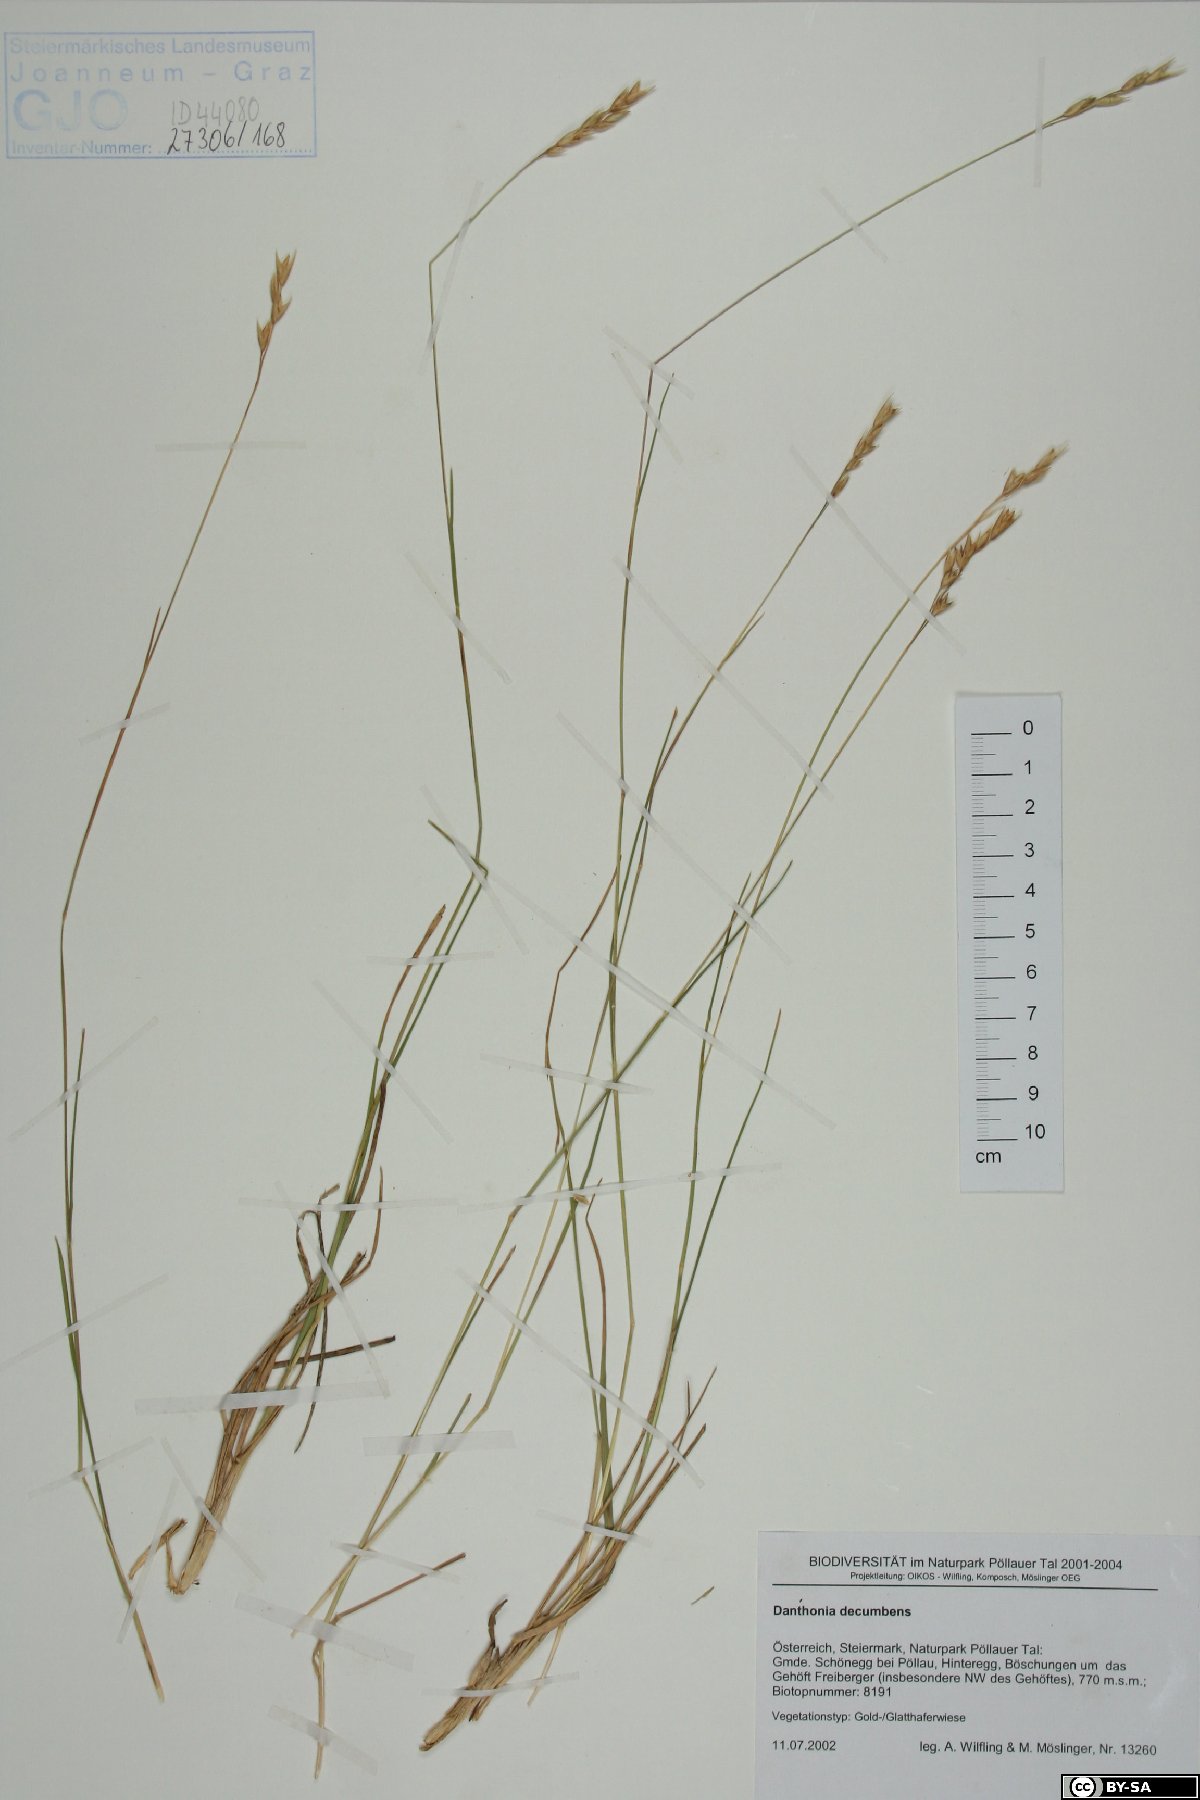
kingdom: Plantae
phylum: Tracheophyta
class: Liliopsida
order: Poales
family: Poaceae
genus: Danthonia
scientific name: Danthonia decumbens
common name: Common heathgrass
